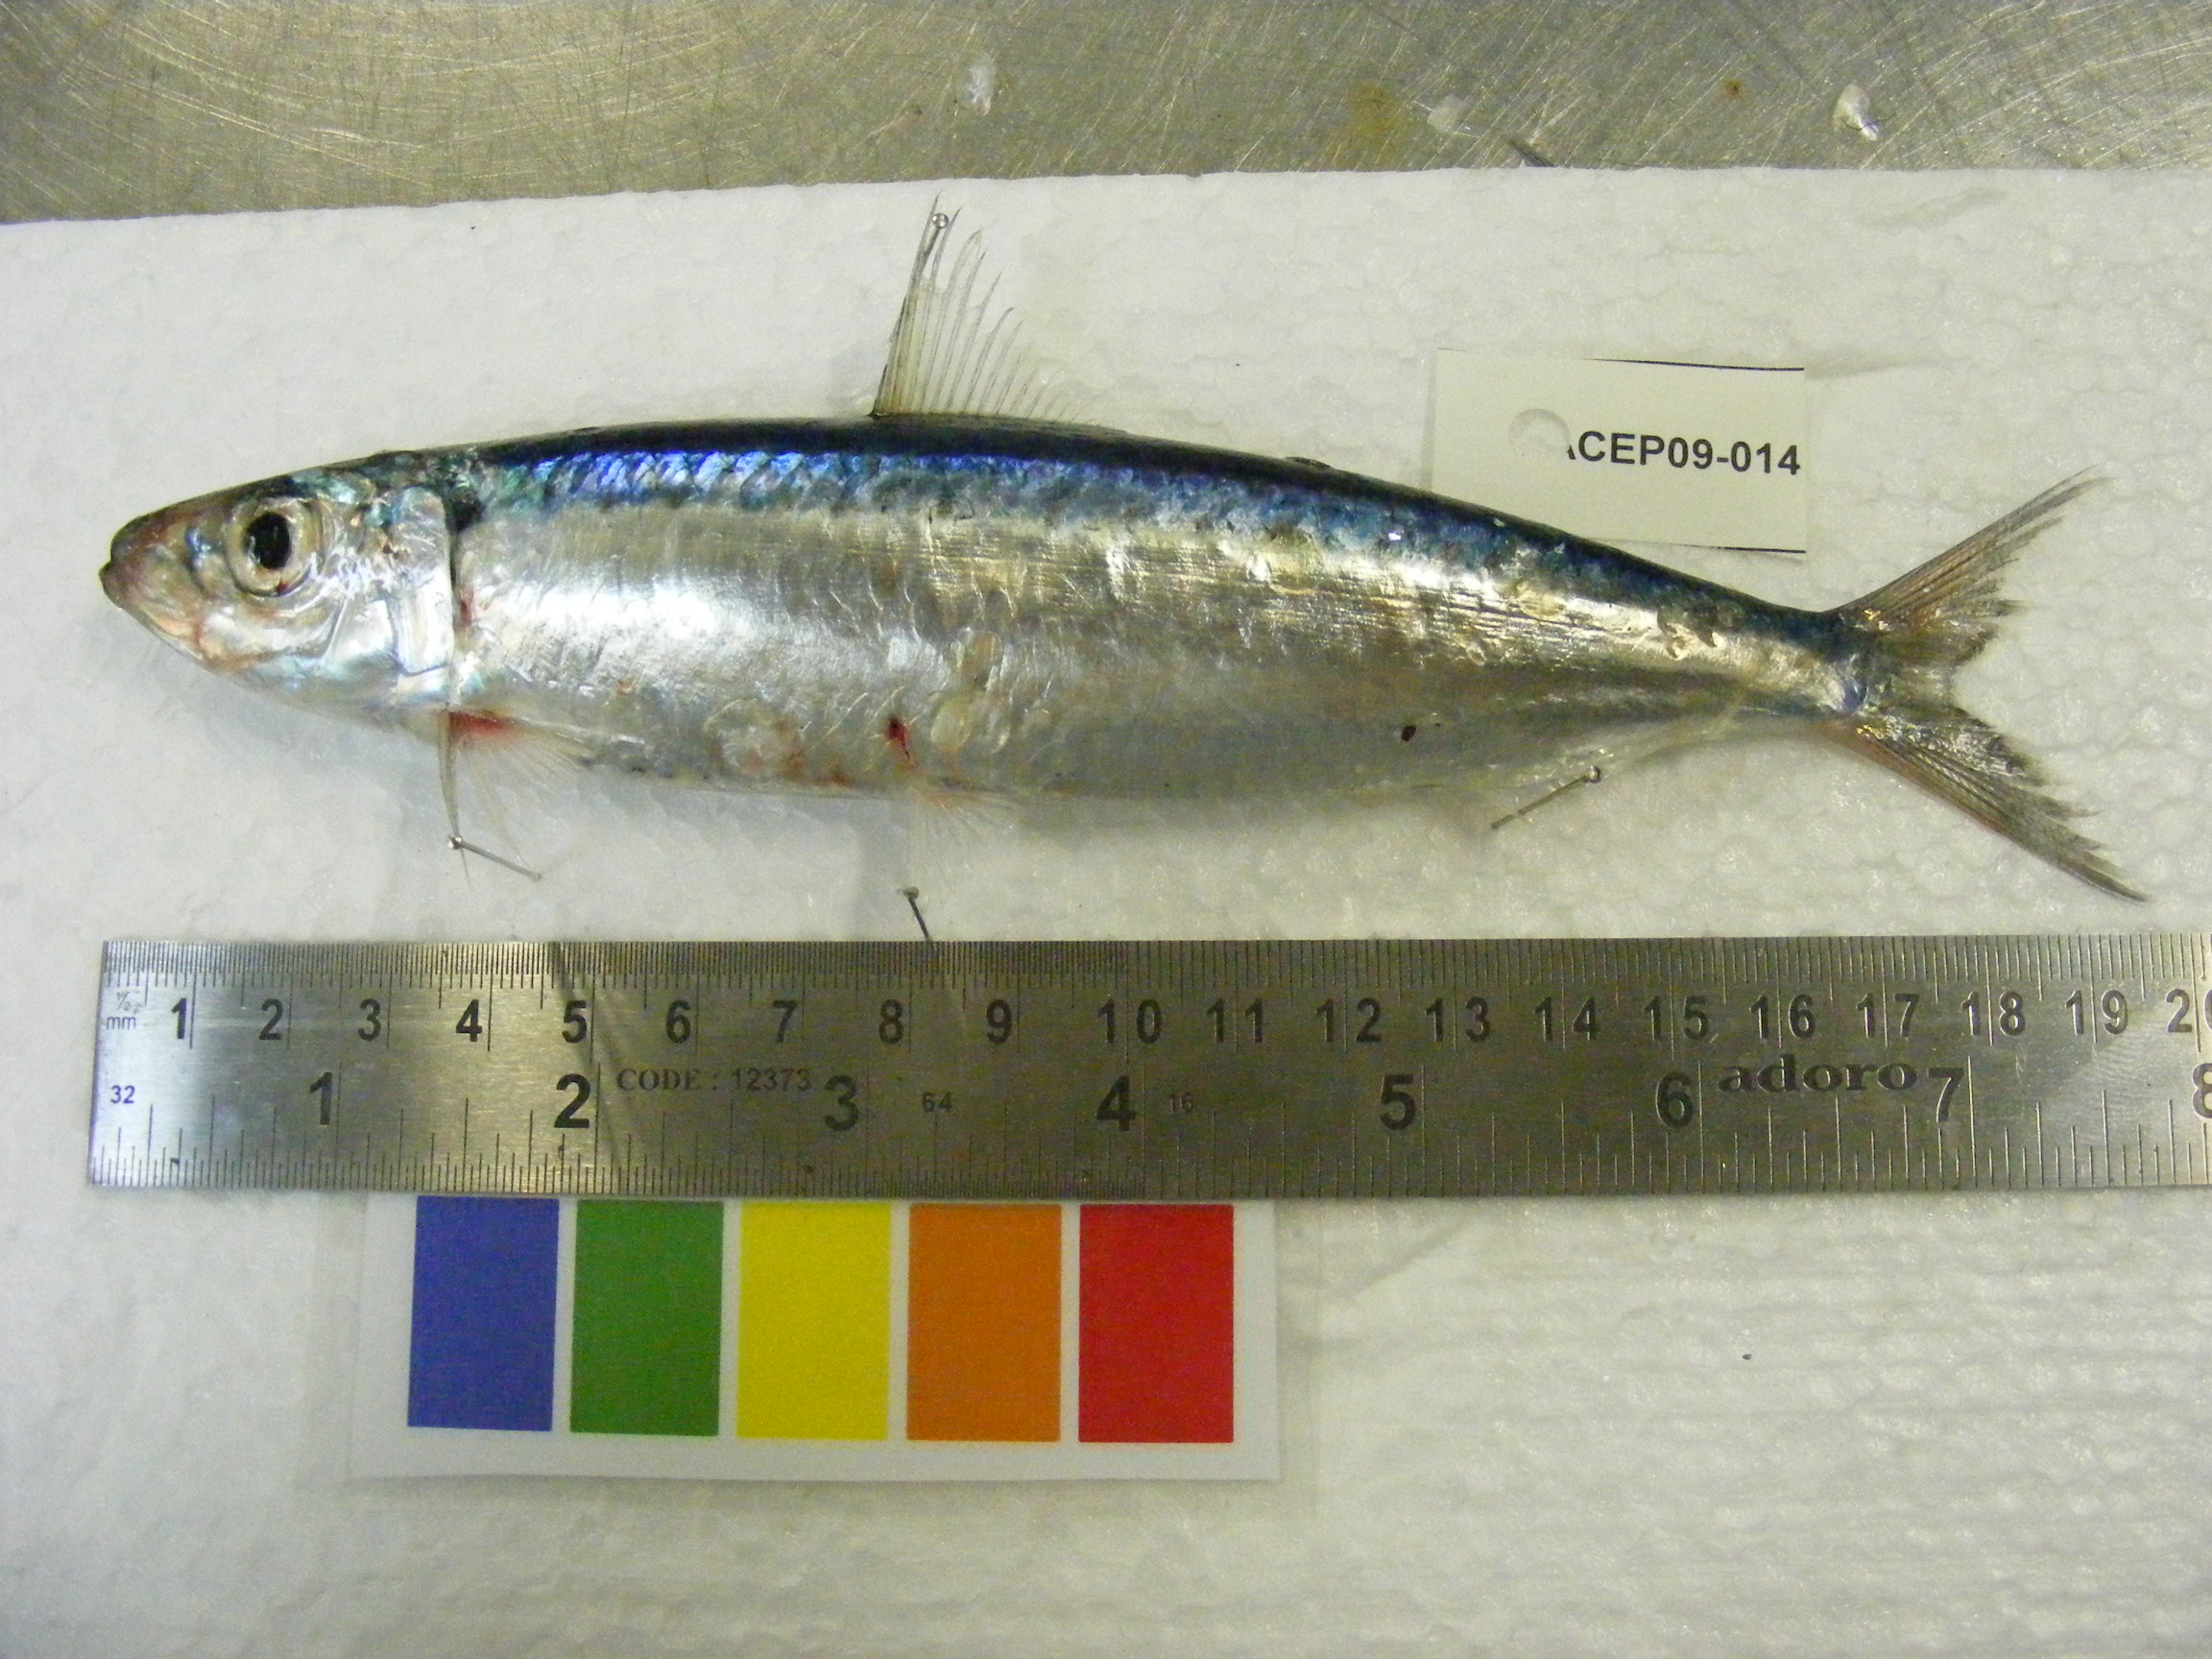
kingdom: Animalia
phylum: Chordata
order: Clupeiformes
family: Clupeidae
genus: Sardinella
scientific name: Sardinella
